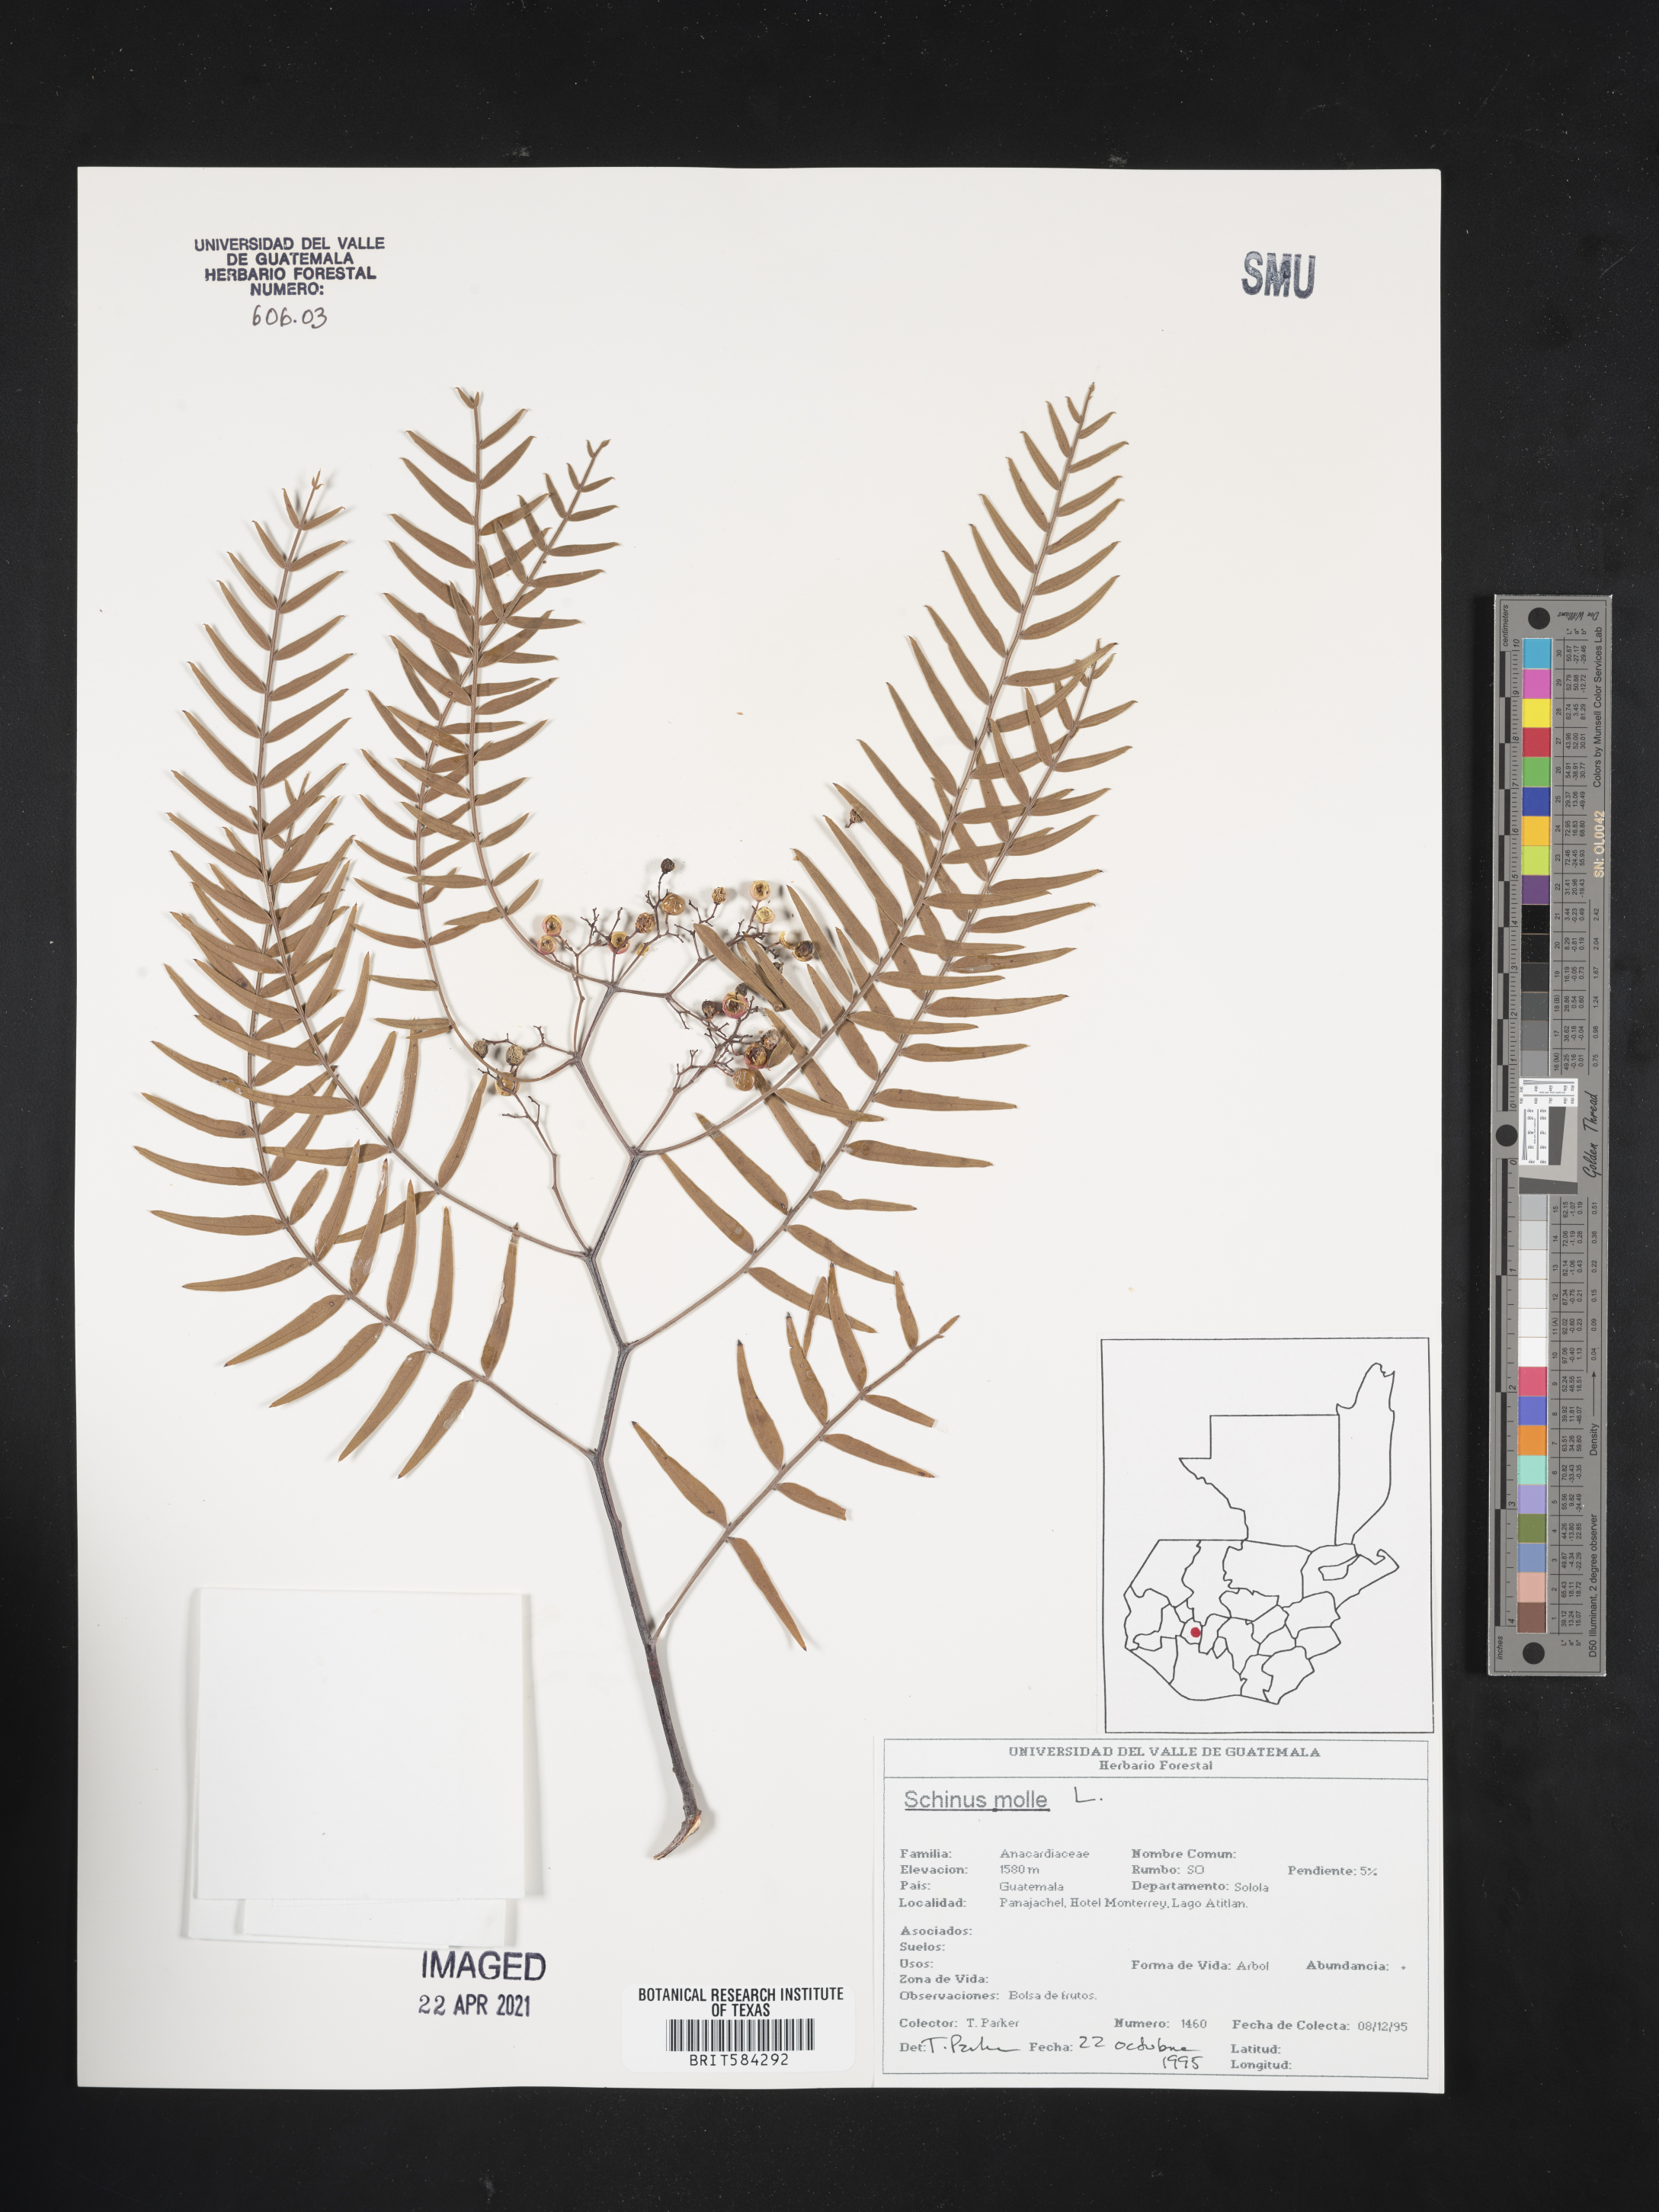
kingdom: Plantae
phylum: Tracheophyta
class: Magnoliopsida
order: Sapindales
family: Anacardiaceae
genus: Schinus
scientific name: Schinus molle
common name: Peruvian peppertree
